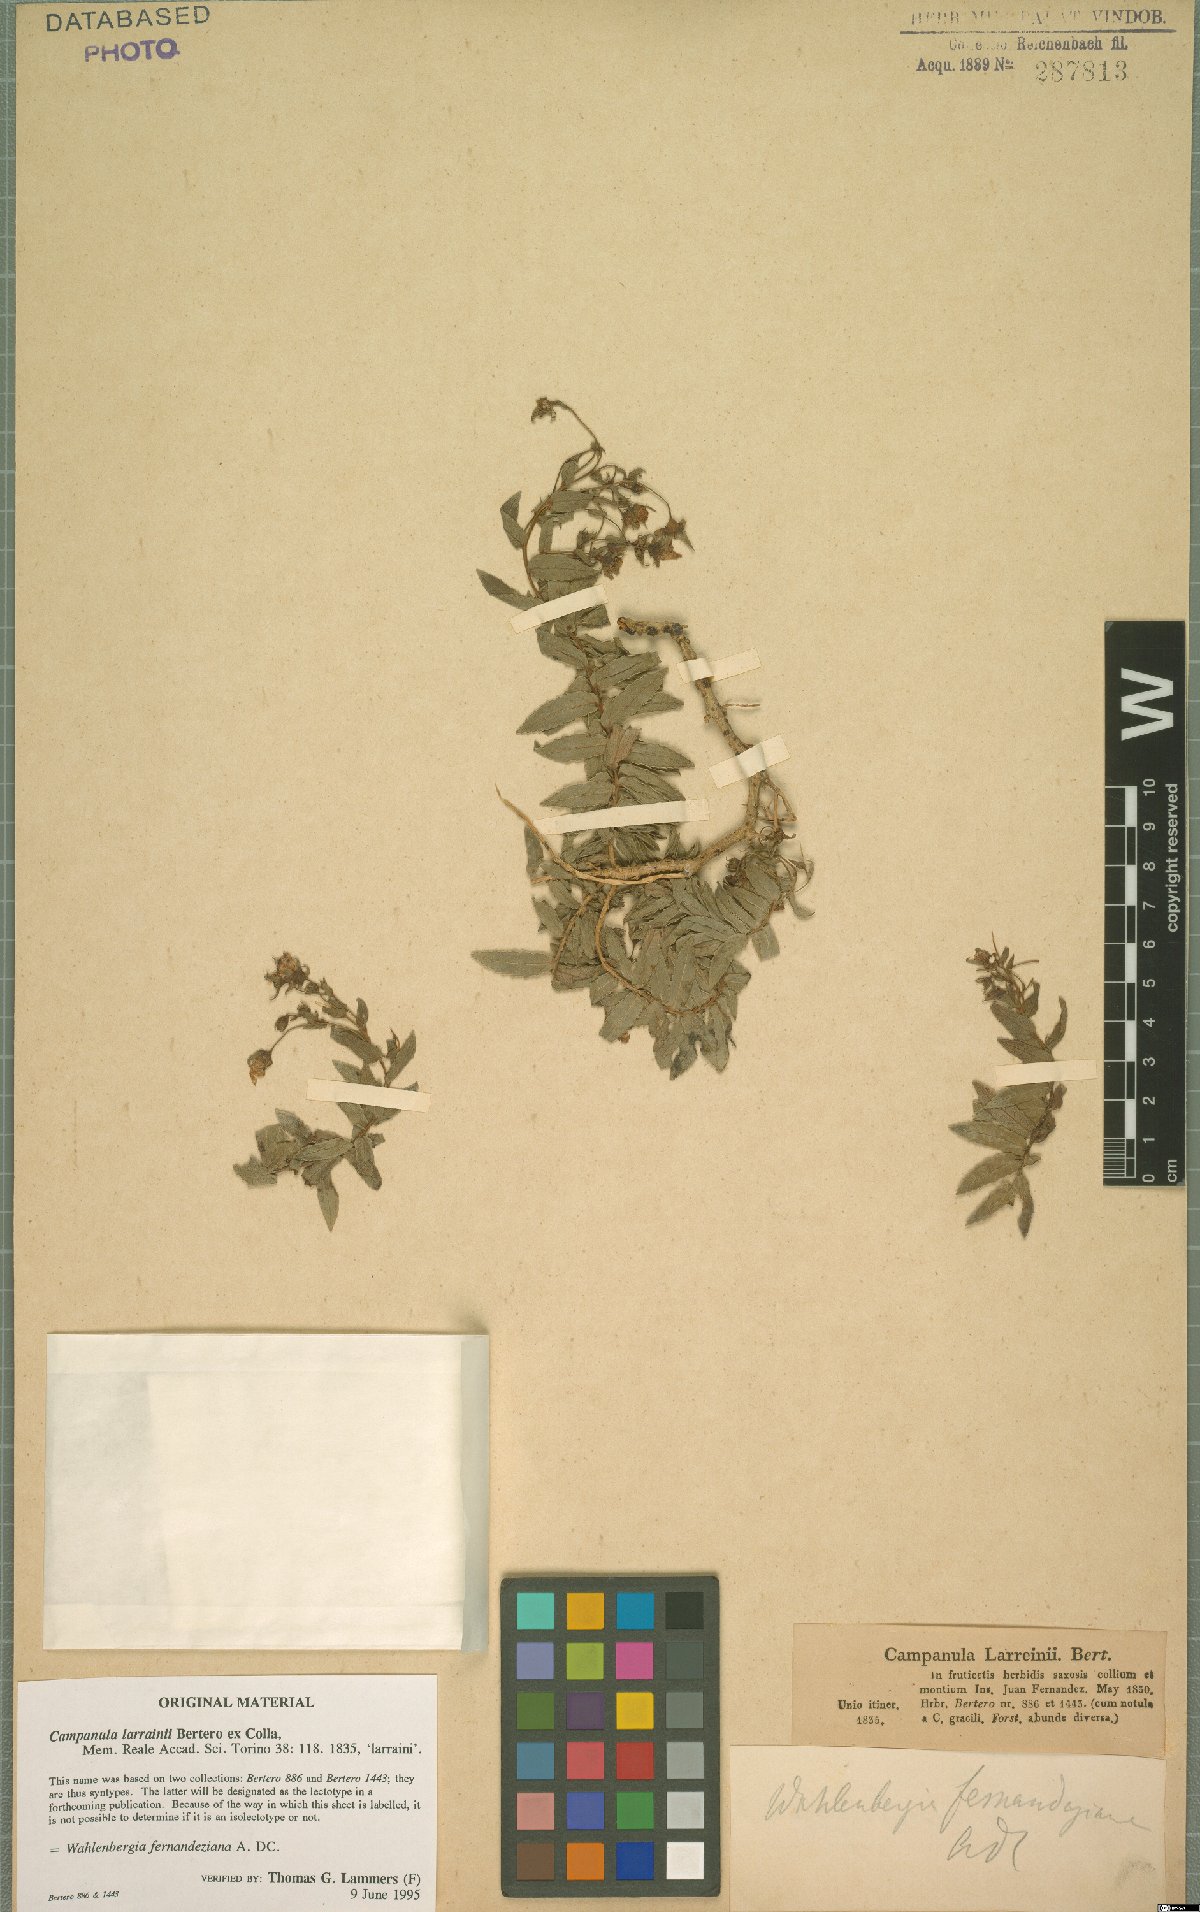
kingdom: Plantae
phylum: Tracheophyta
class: Magnoliopsida
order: Asterales
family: Campanulaceae
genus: Wahlenbergia
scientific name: Wahlenbergia fernandeziana
